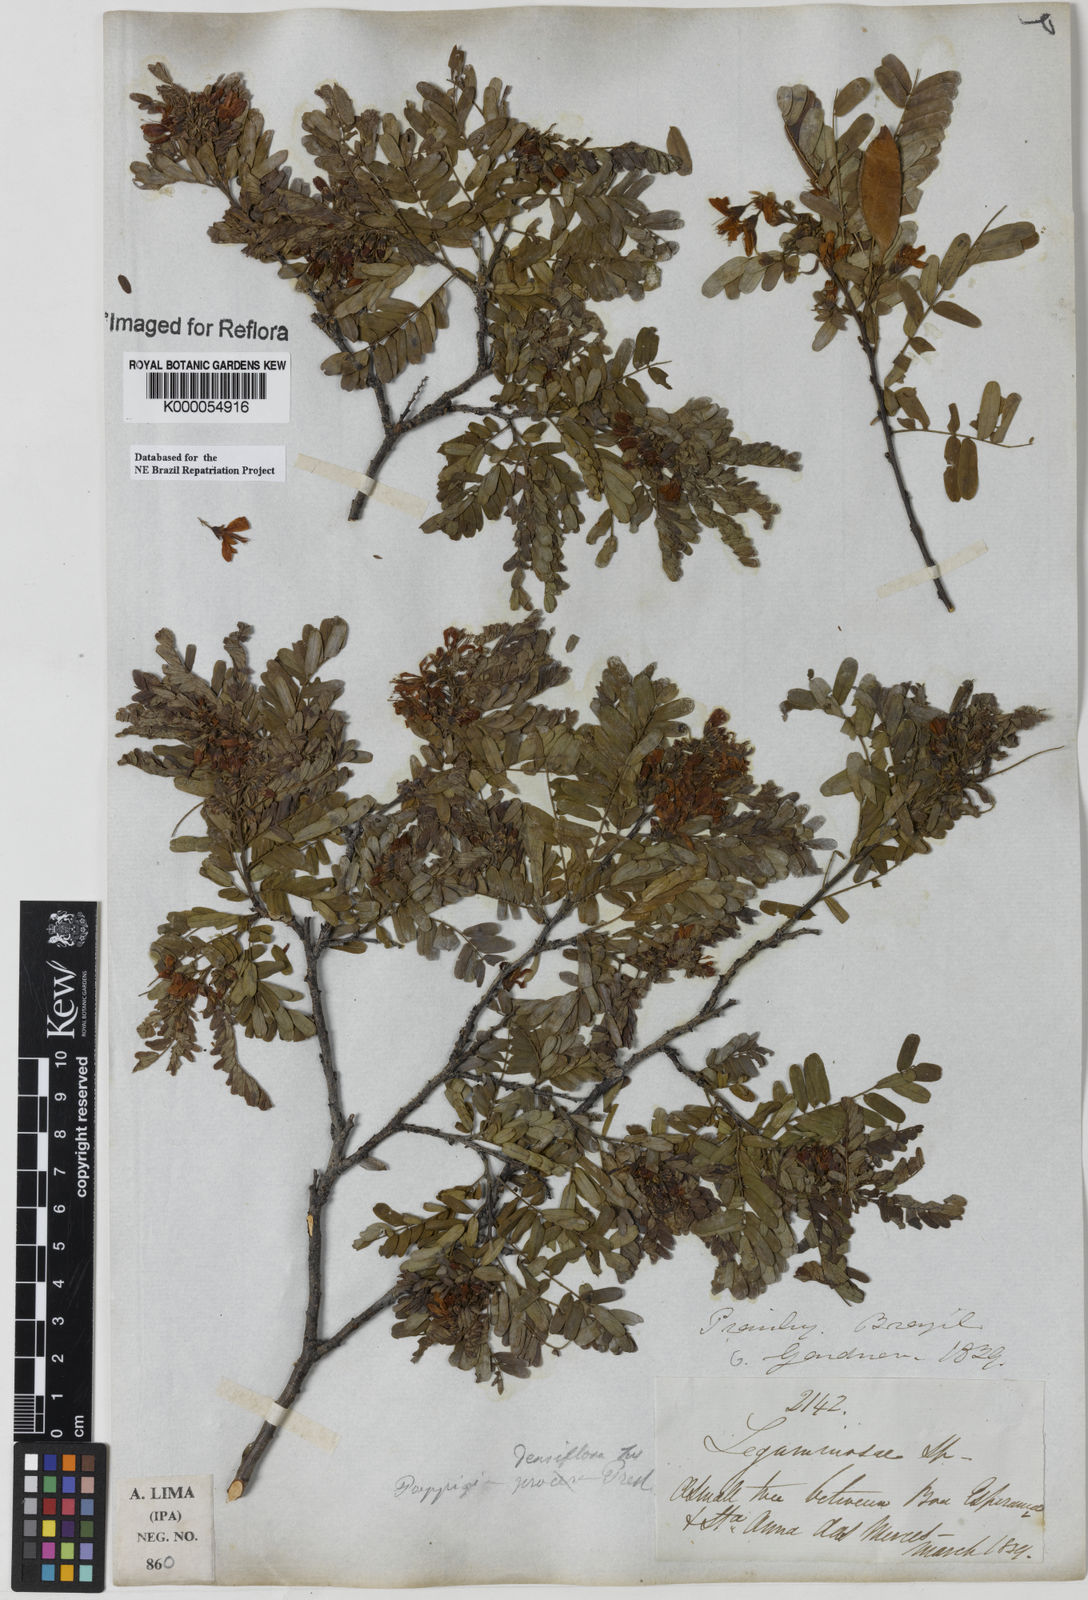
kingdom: Plantae
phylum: Tracheophyta
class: Magnoliopsida
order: Fabales
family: Fabaceae
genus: Poeppigia
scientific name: Poeppigia procera
